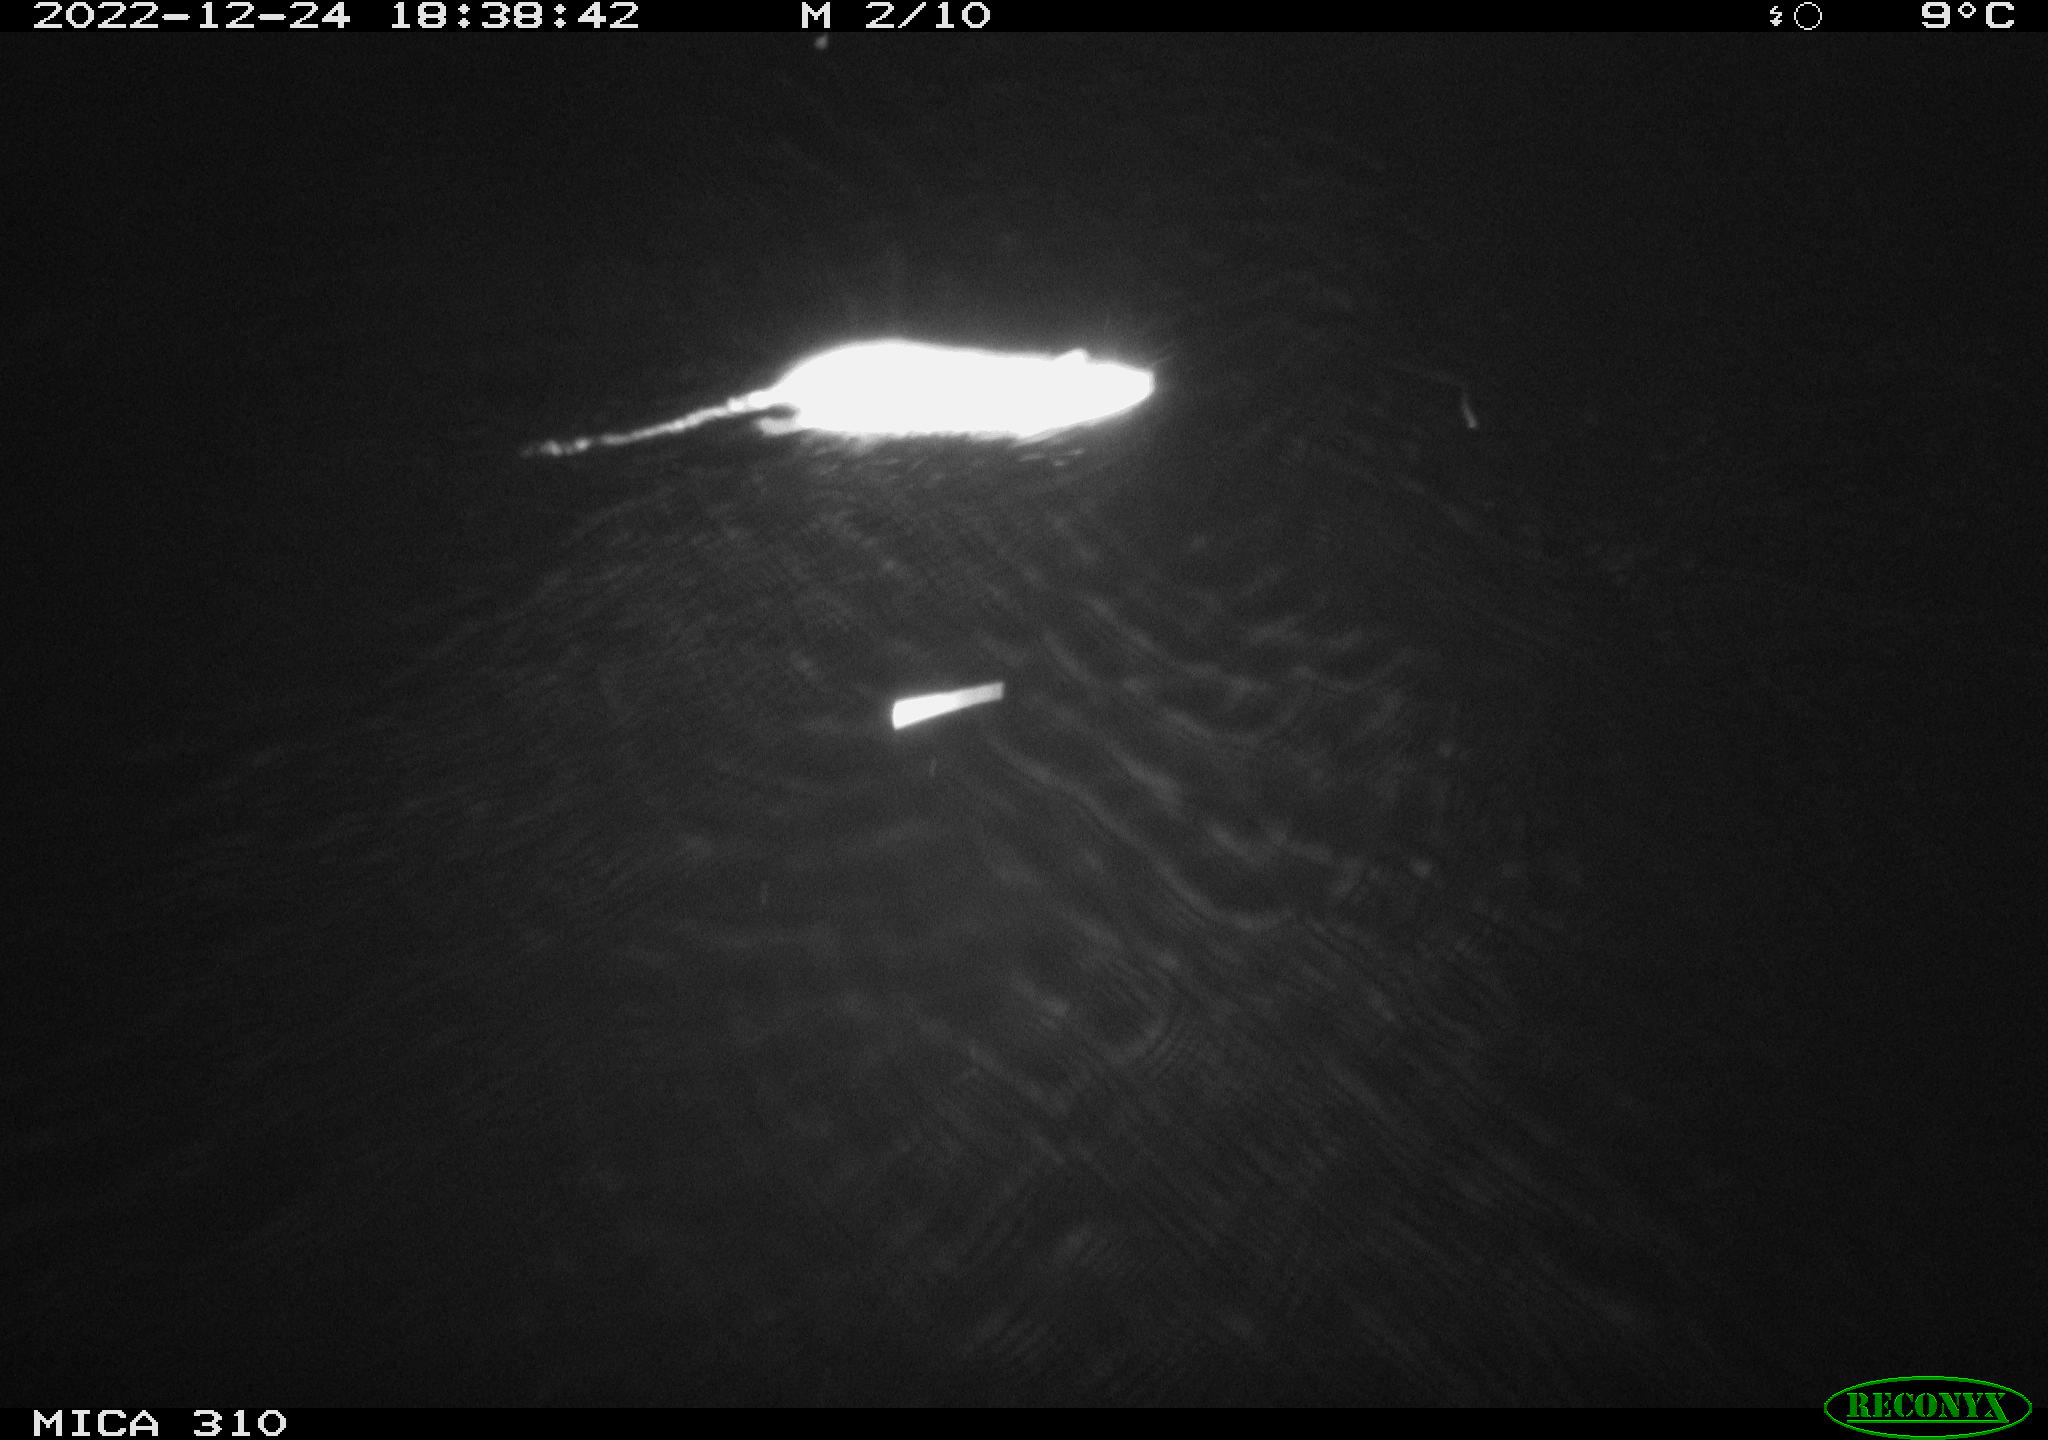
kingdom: Animalia
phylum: Chordata
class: Mammalia
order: Rodentia
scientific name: Rodentia
